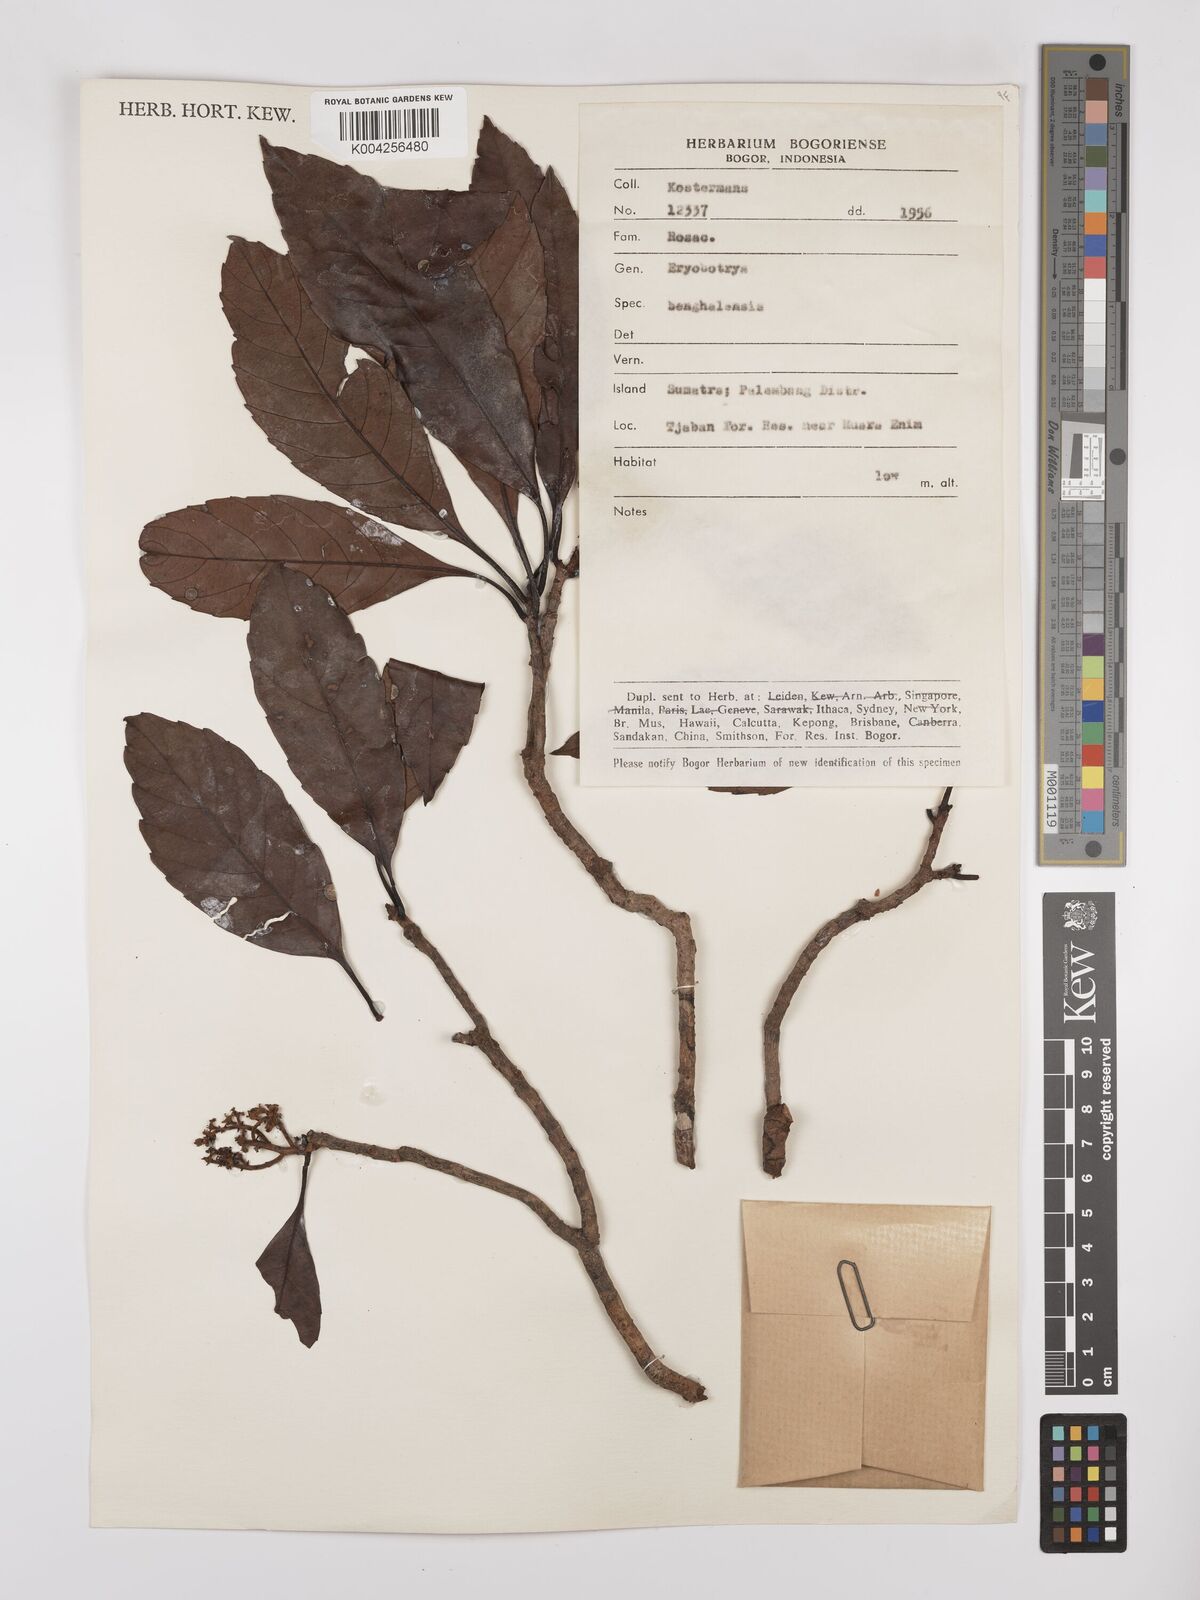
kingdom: Plantae
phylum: Tracheophyta
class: Magnoliopsida
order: Rosales
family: Rosaceae
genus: Rhaphiolepis
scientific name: Rhaphiolepis bengalensis
